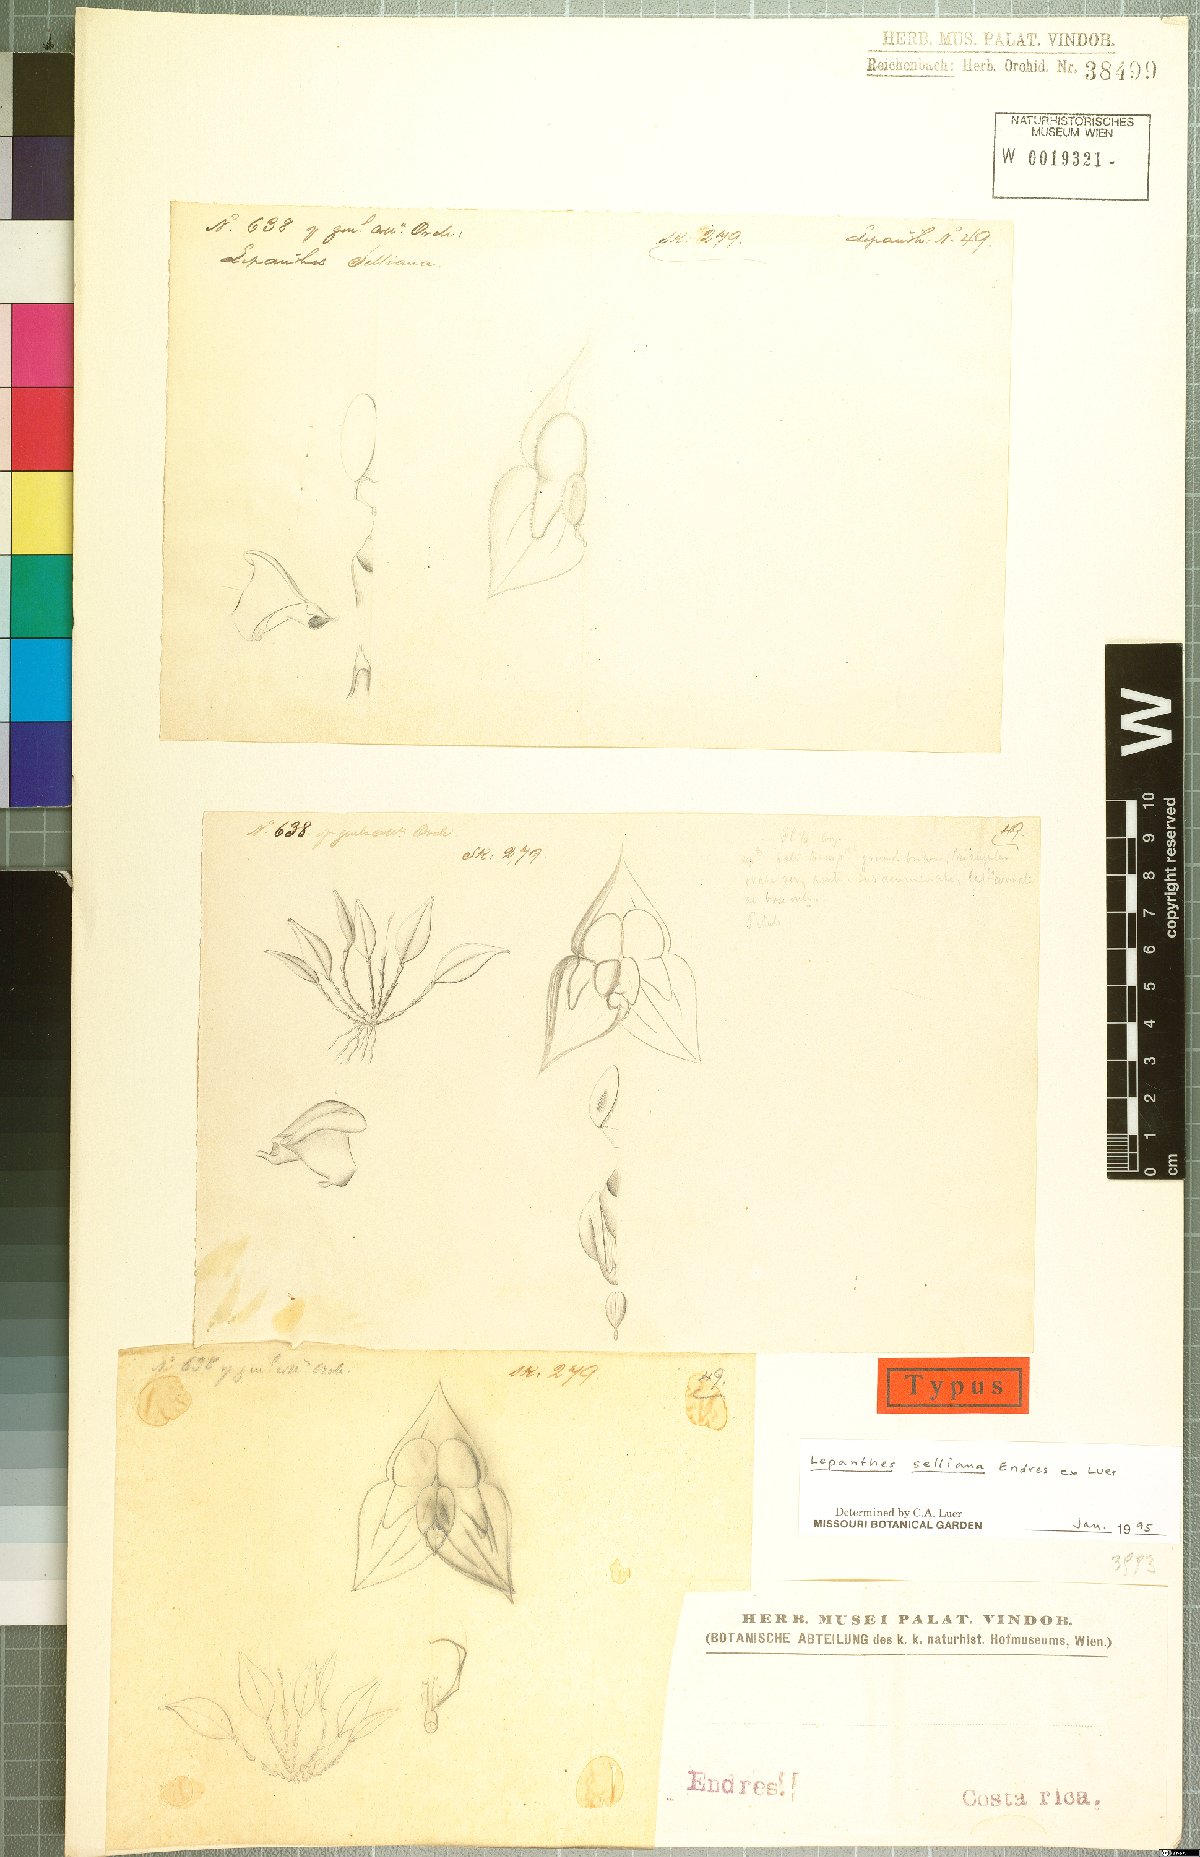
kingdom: Plantae
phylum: Tracheophyta
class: Liliopsida
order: Asparagales
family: Orchidaceae
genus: Lepanthes
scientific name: Lepanthes selliana
